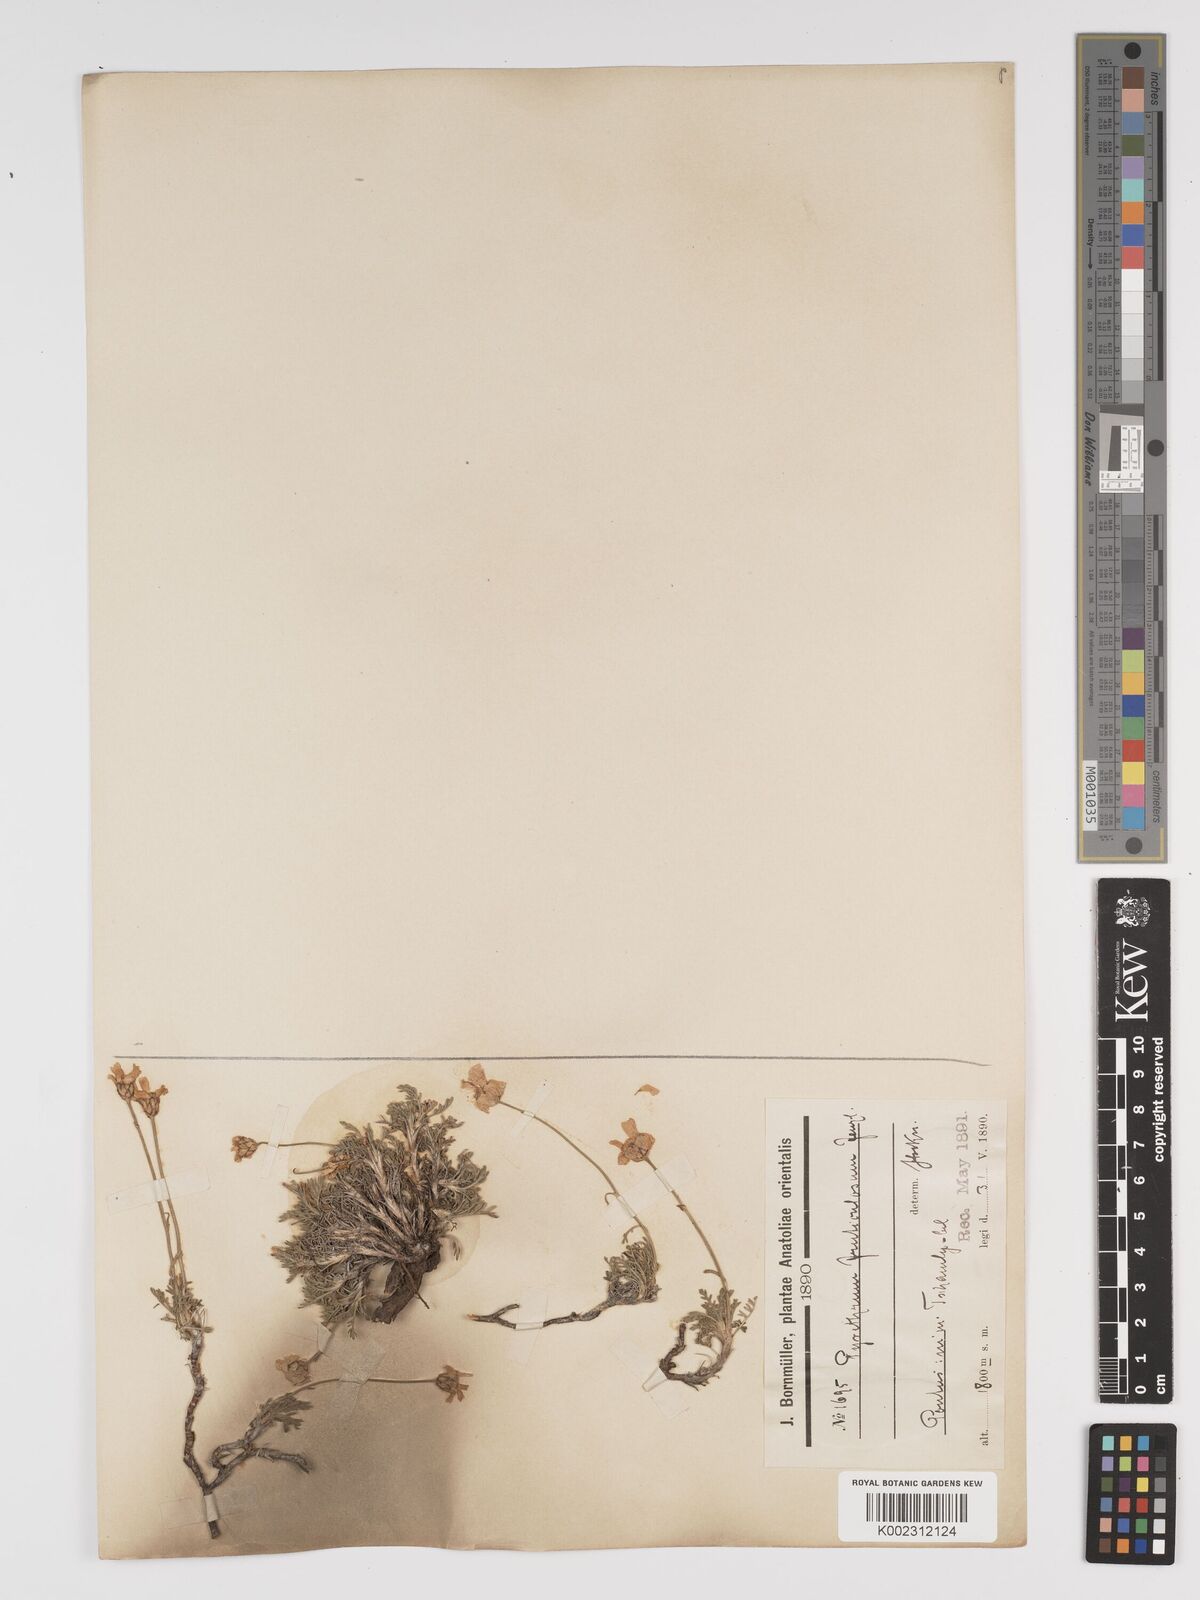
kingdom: Plantae
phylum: Tracheophyta
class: Magnoliopsida
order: Asterales
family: Asteraceae
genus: Ajania
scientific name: Ajania fruticulosa
